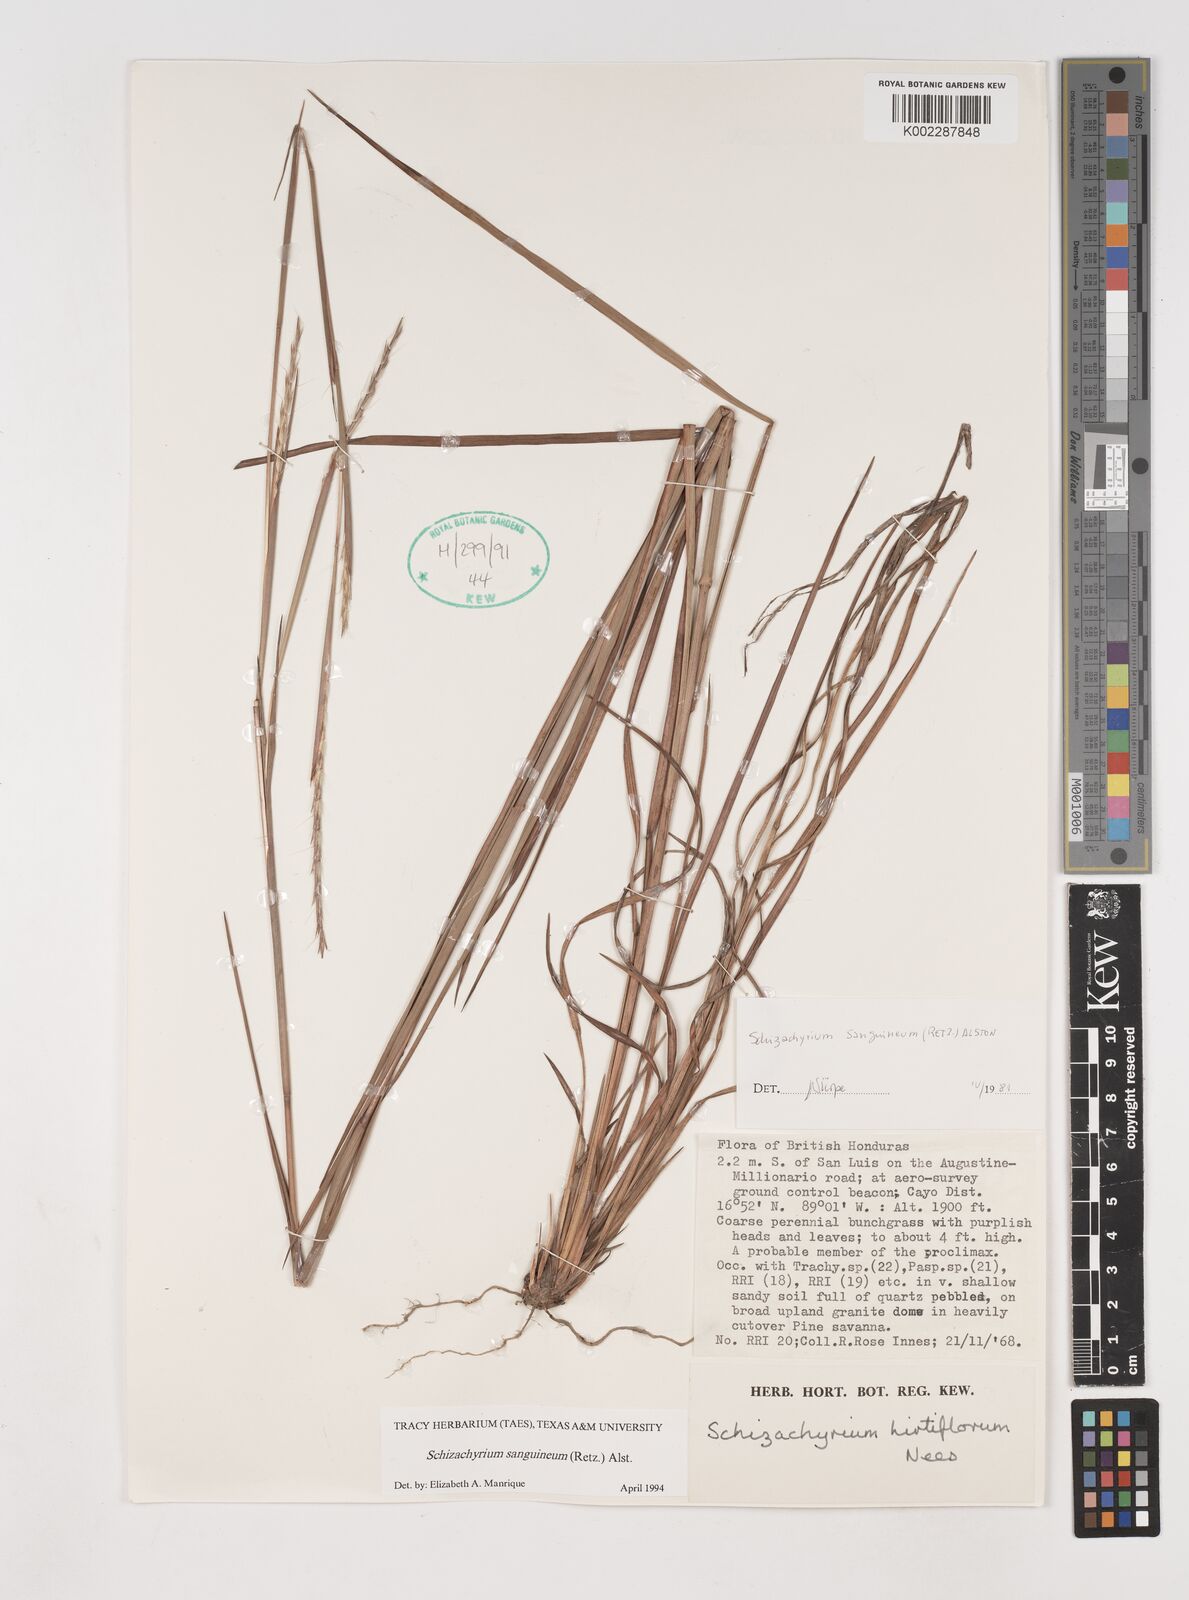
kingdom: Plantae
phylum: Tracheophyta
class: Liliopsida
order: Poales
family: Poaceae
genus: Schizachyrium
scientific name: Schizachyrium sanguineum
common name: Crimson bluestem
